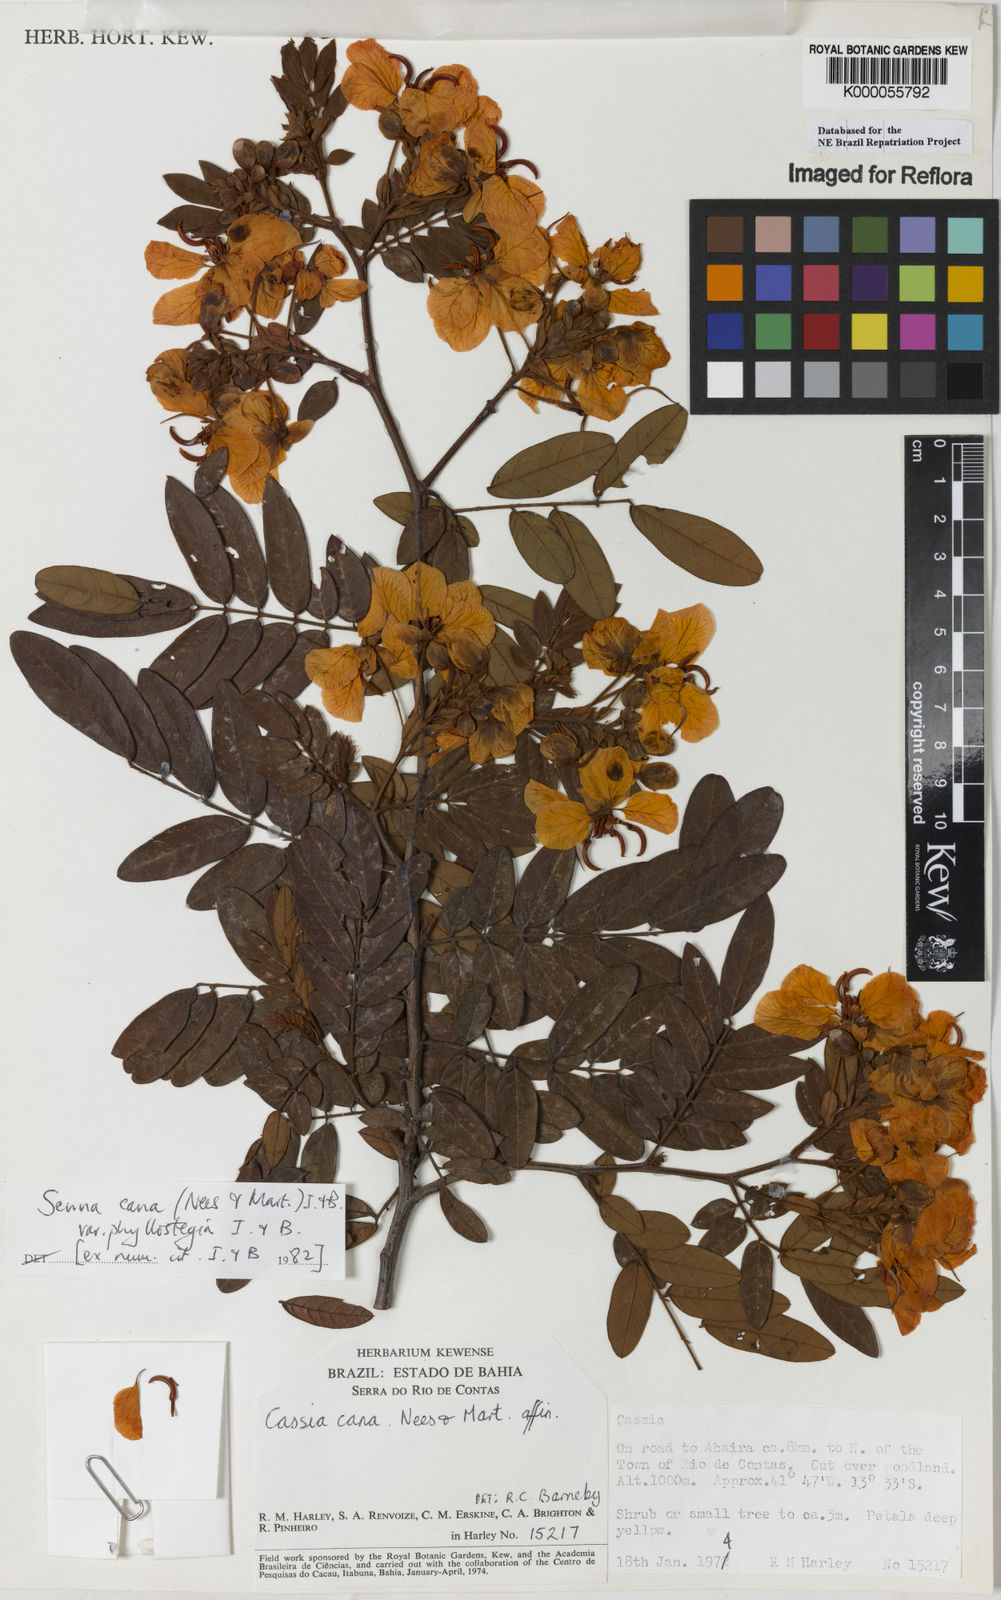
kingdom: Plantae
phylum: Tracheophyta
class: Magnoliopsida
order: Fabales
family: Fabaceae
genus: Senna
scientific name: Senna cana
